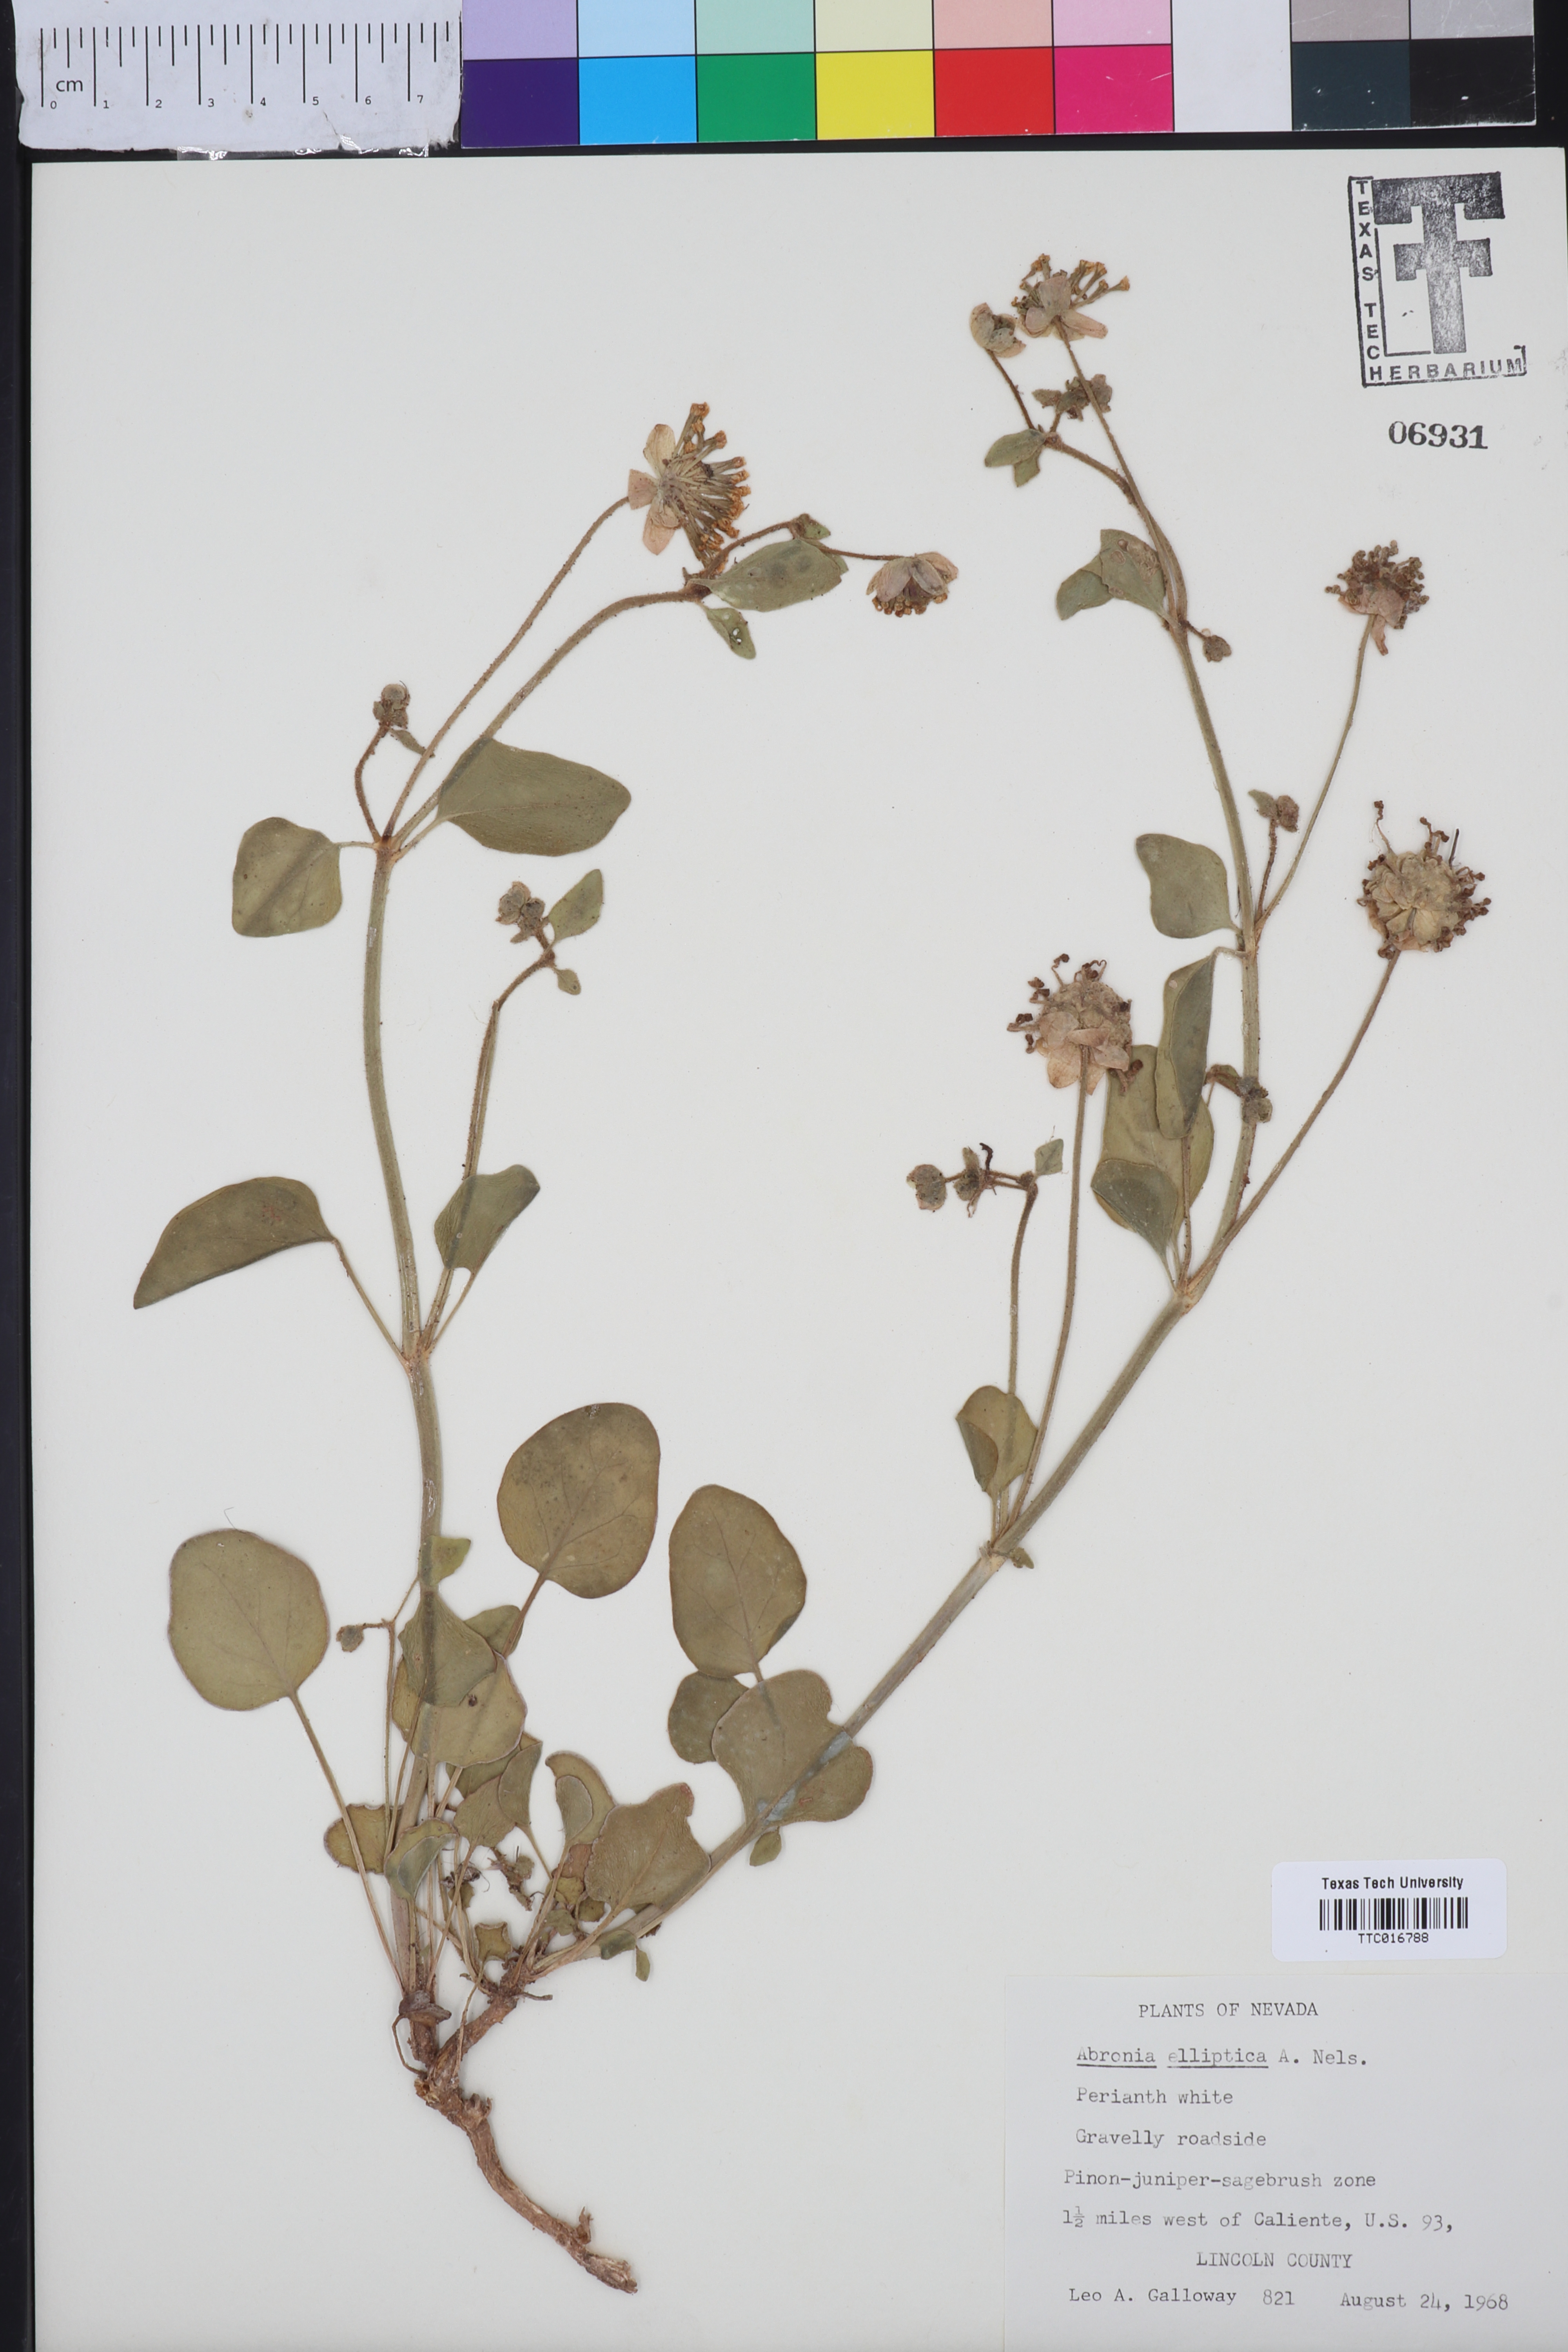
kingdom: Plantae
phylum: Tracheophyta
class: Magnoliopsida
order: Caryophyllales
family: Nyctaginaceae
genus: Abronia
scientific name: Abronia elliptica
